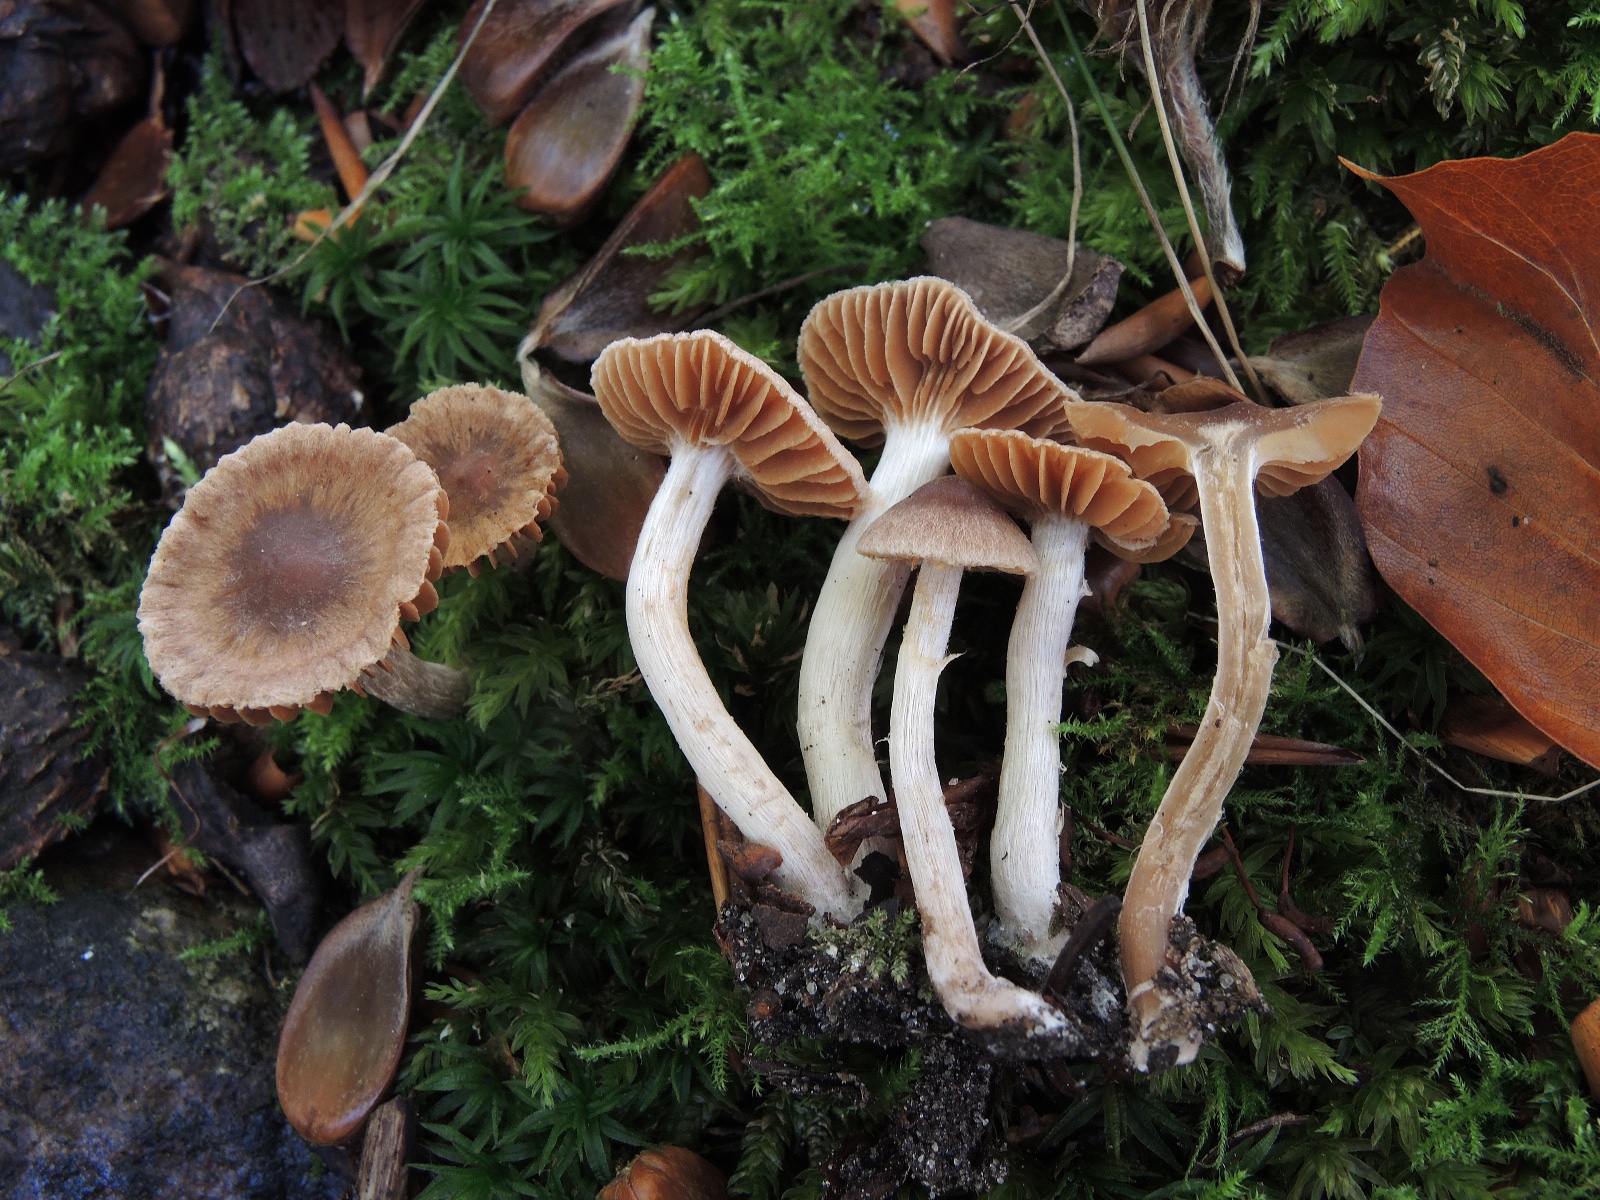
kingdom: Fungi
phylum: Basidiomycota
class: Agaricomycetes
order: Agaricales
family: Cortinariaceae
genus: Cortinarius
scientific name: Cortinarius
